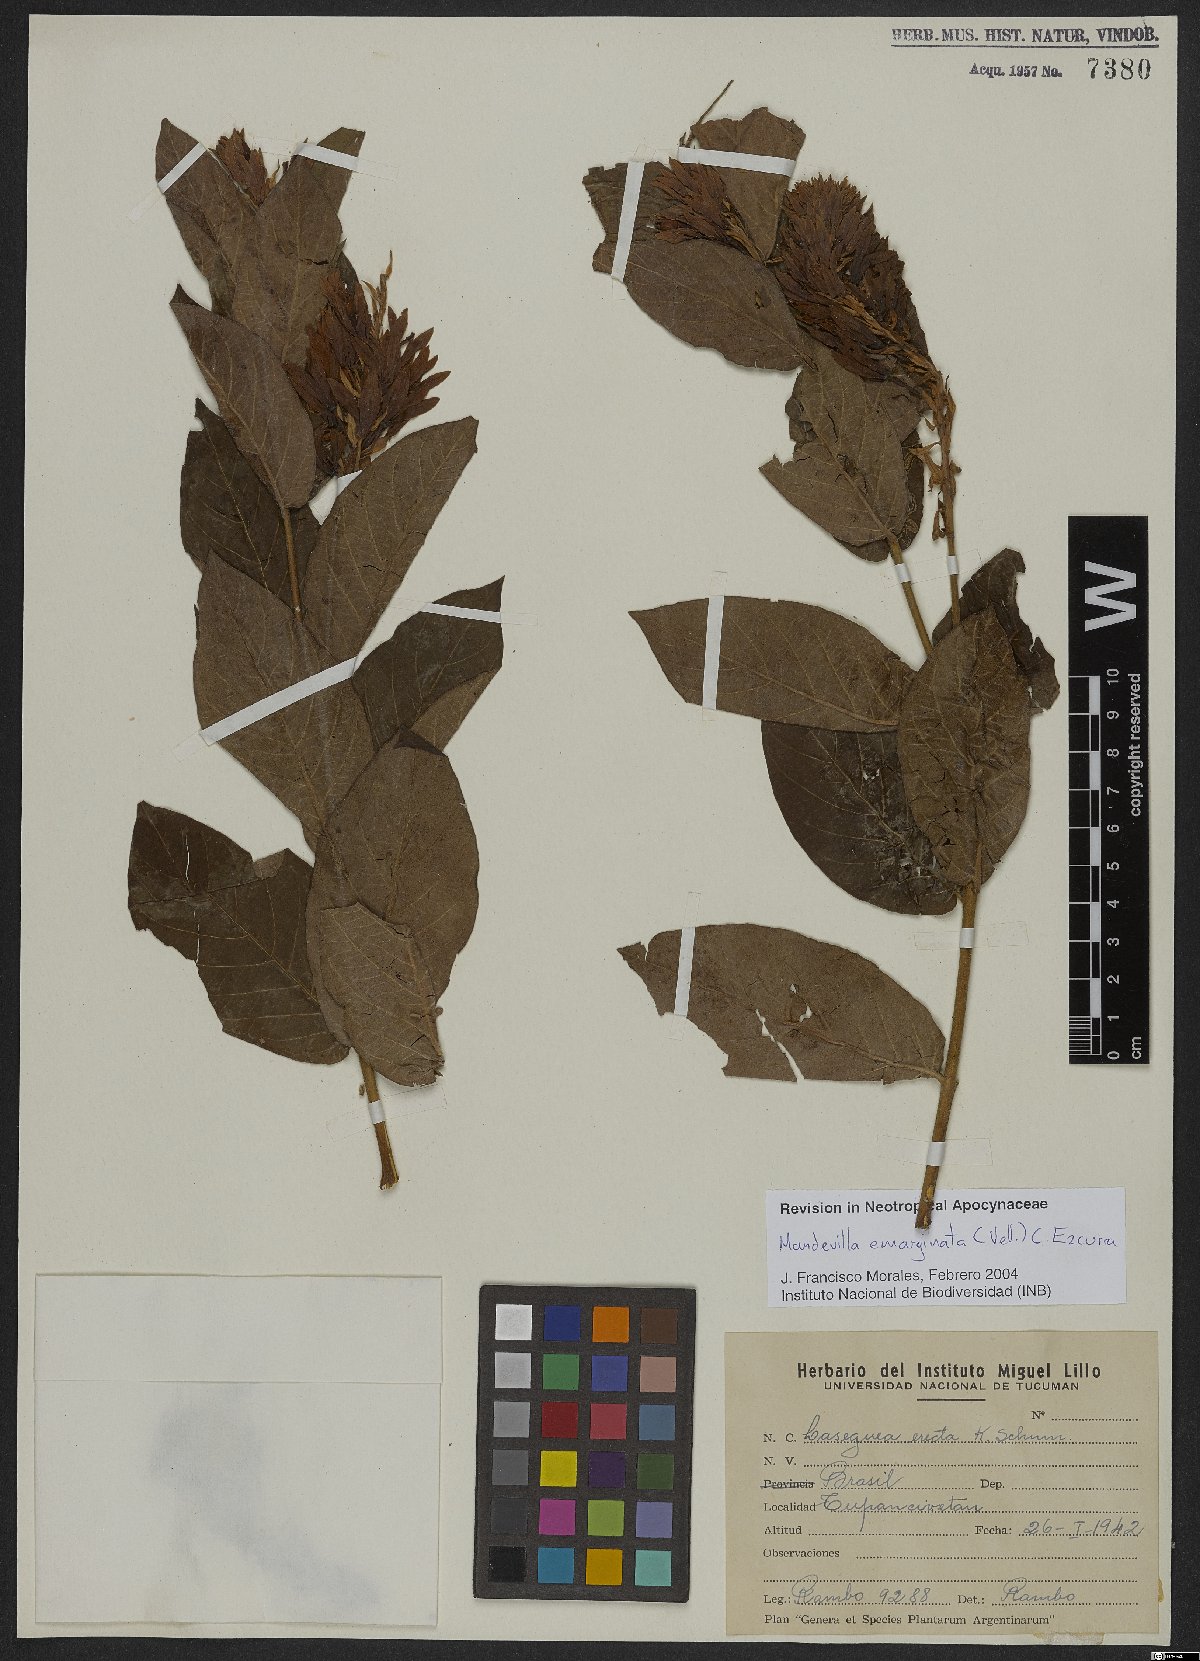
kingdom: Plantae
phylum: Tracheophyta
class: Magnoliopsida
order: Gentianales
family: Apocynaceae
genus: Mandevilla
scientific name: Mandevilla emarginata
